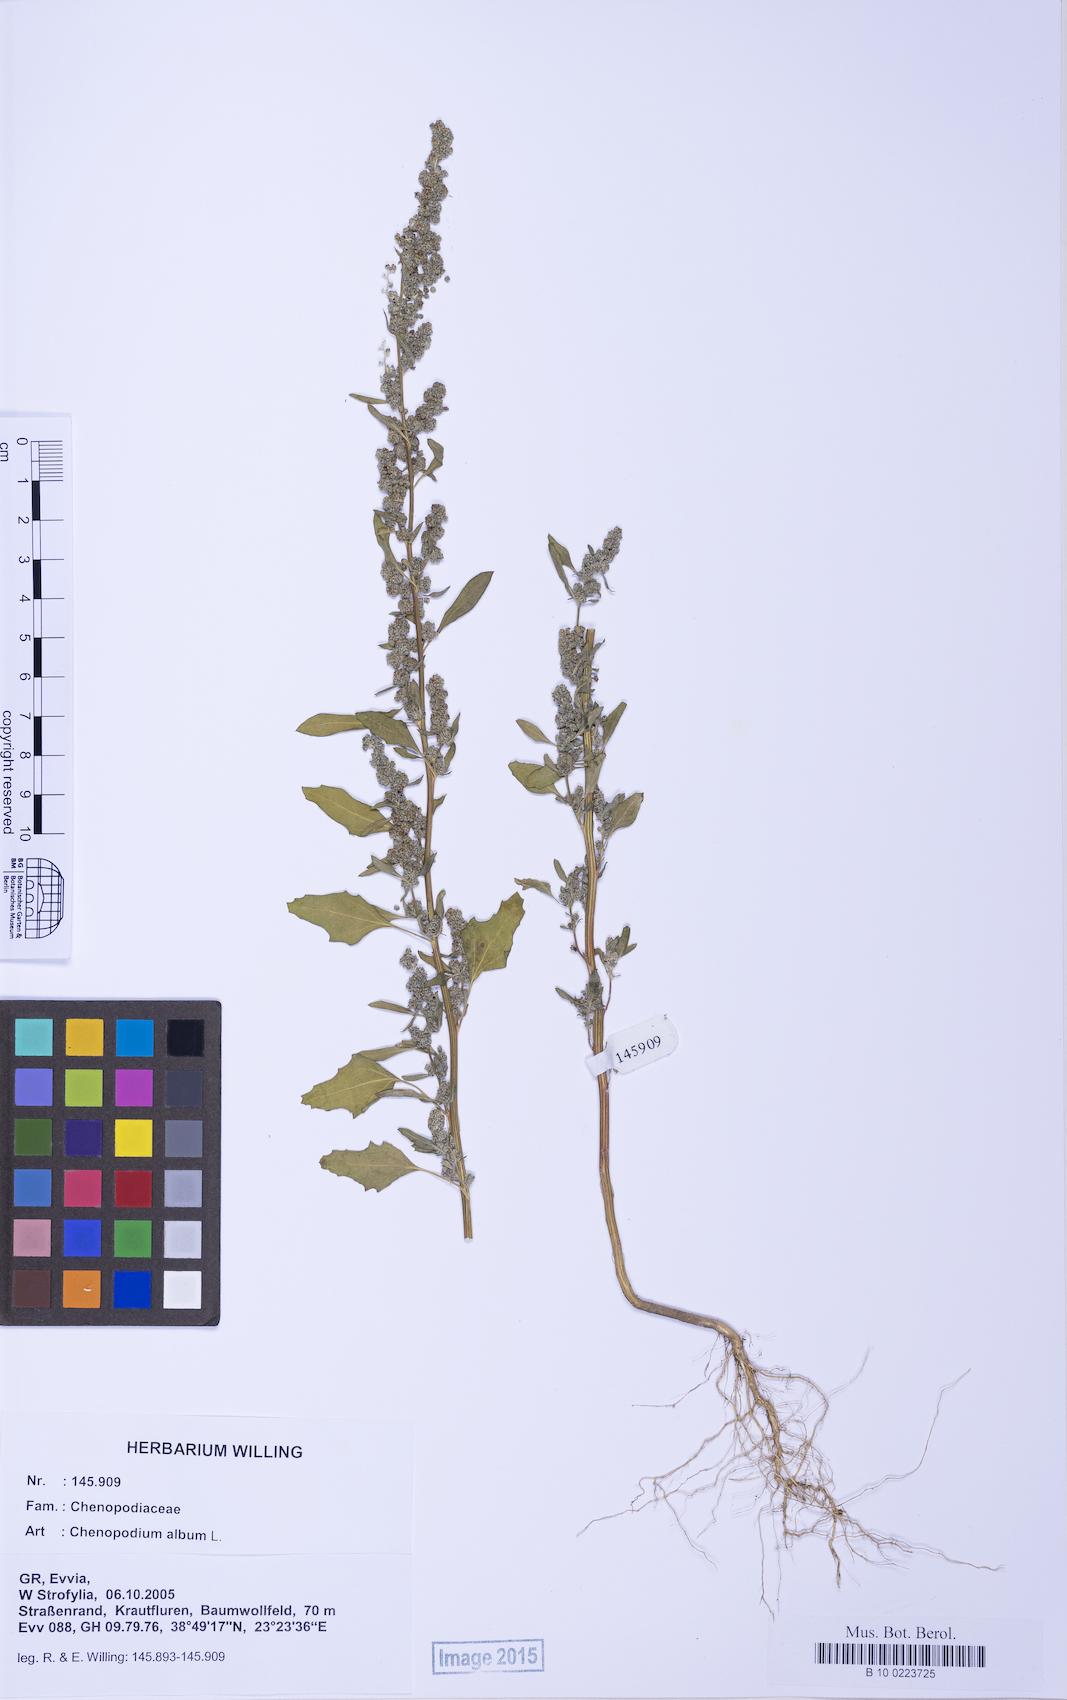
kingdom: Plantae
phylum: Tracheophyta
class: Magnoliopsida
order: Caryophyllales
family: Amaranthaceae
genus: Chenopodium
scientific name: Chenopodium album
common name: Fat-hen
